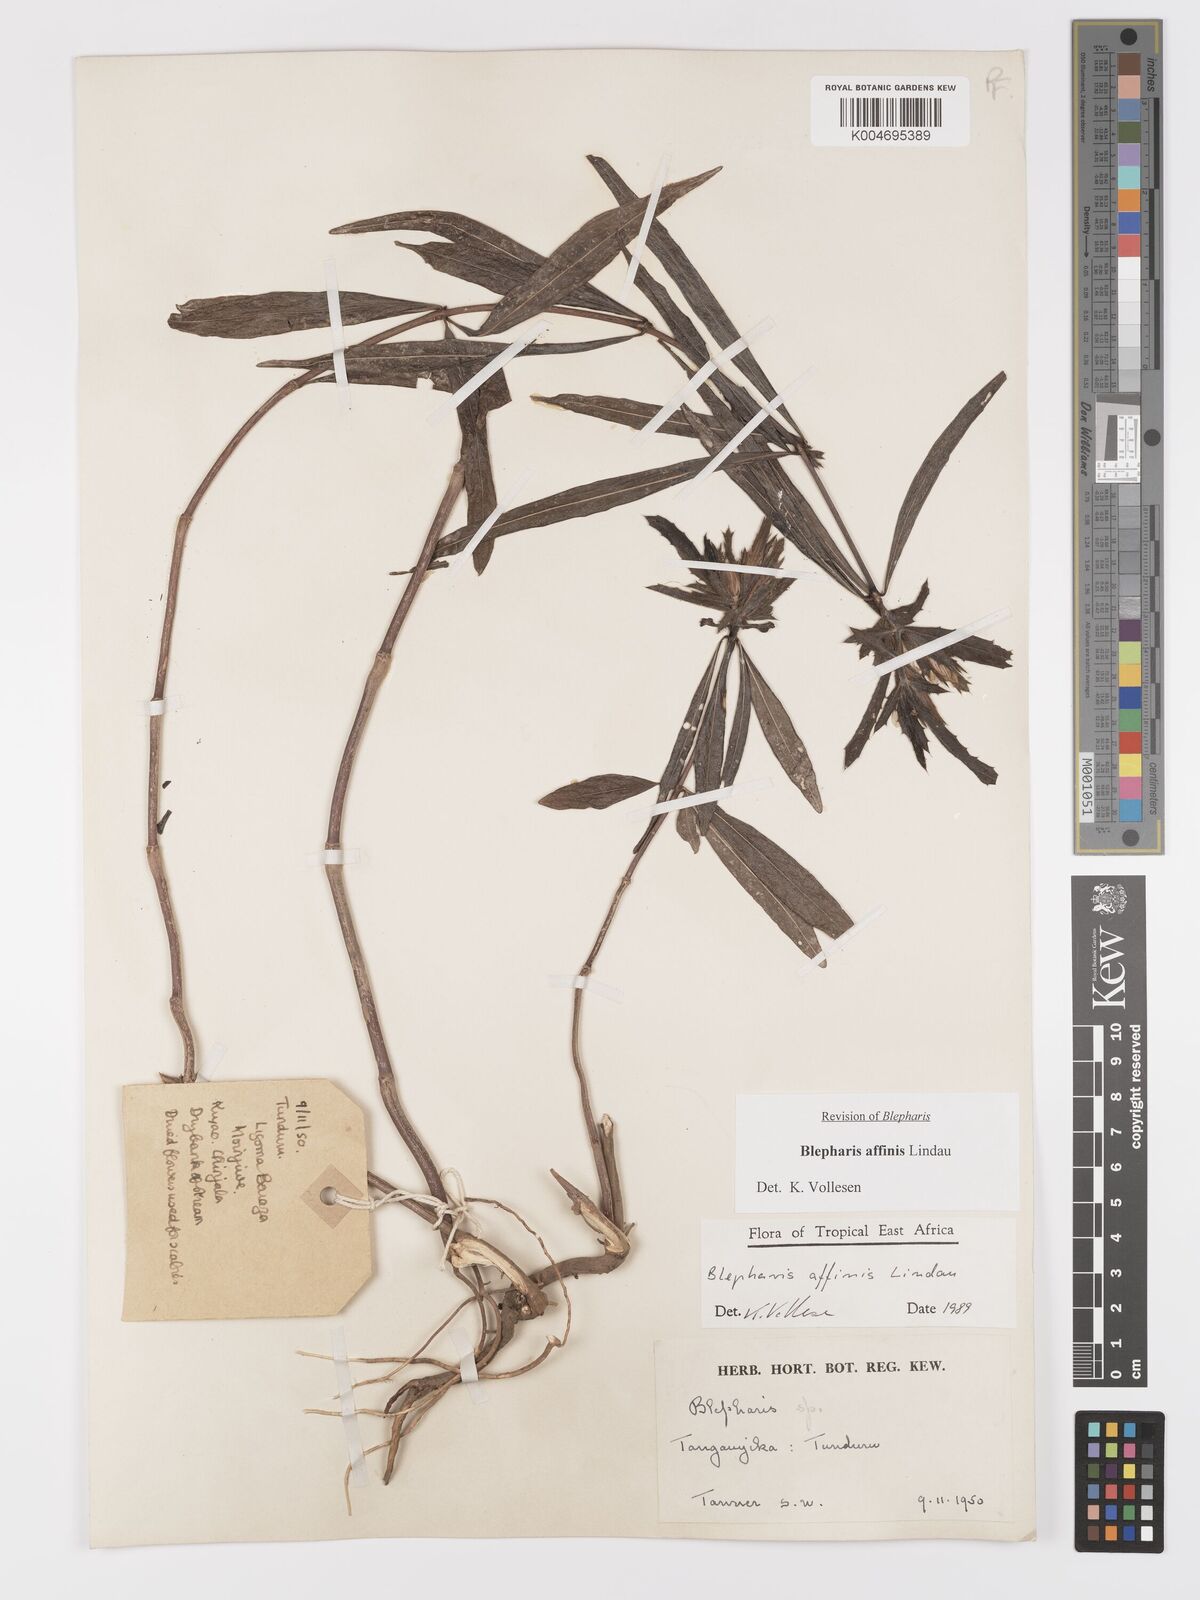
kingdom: Plantae
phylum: Tracheophyta
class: Magnoliopsida
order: Lamiales
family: Acanthaceae
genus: Blepharis
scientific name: Blepharis affinis
